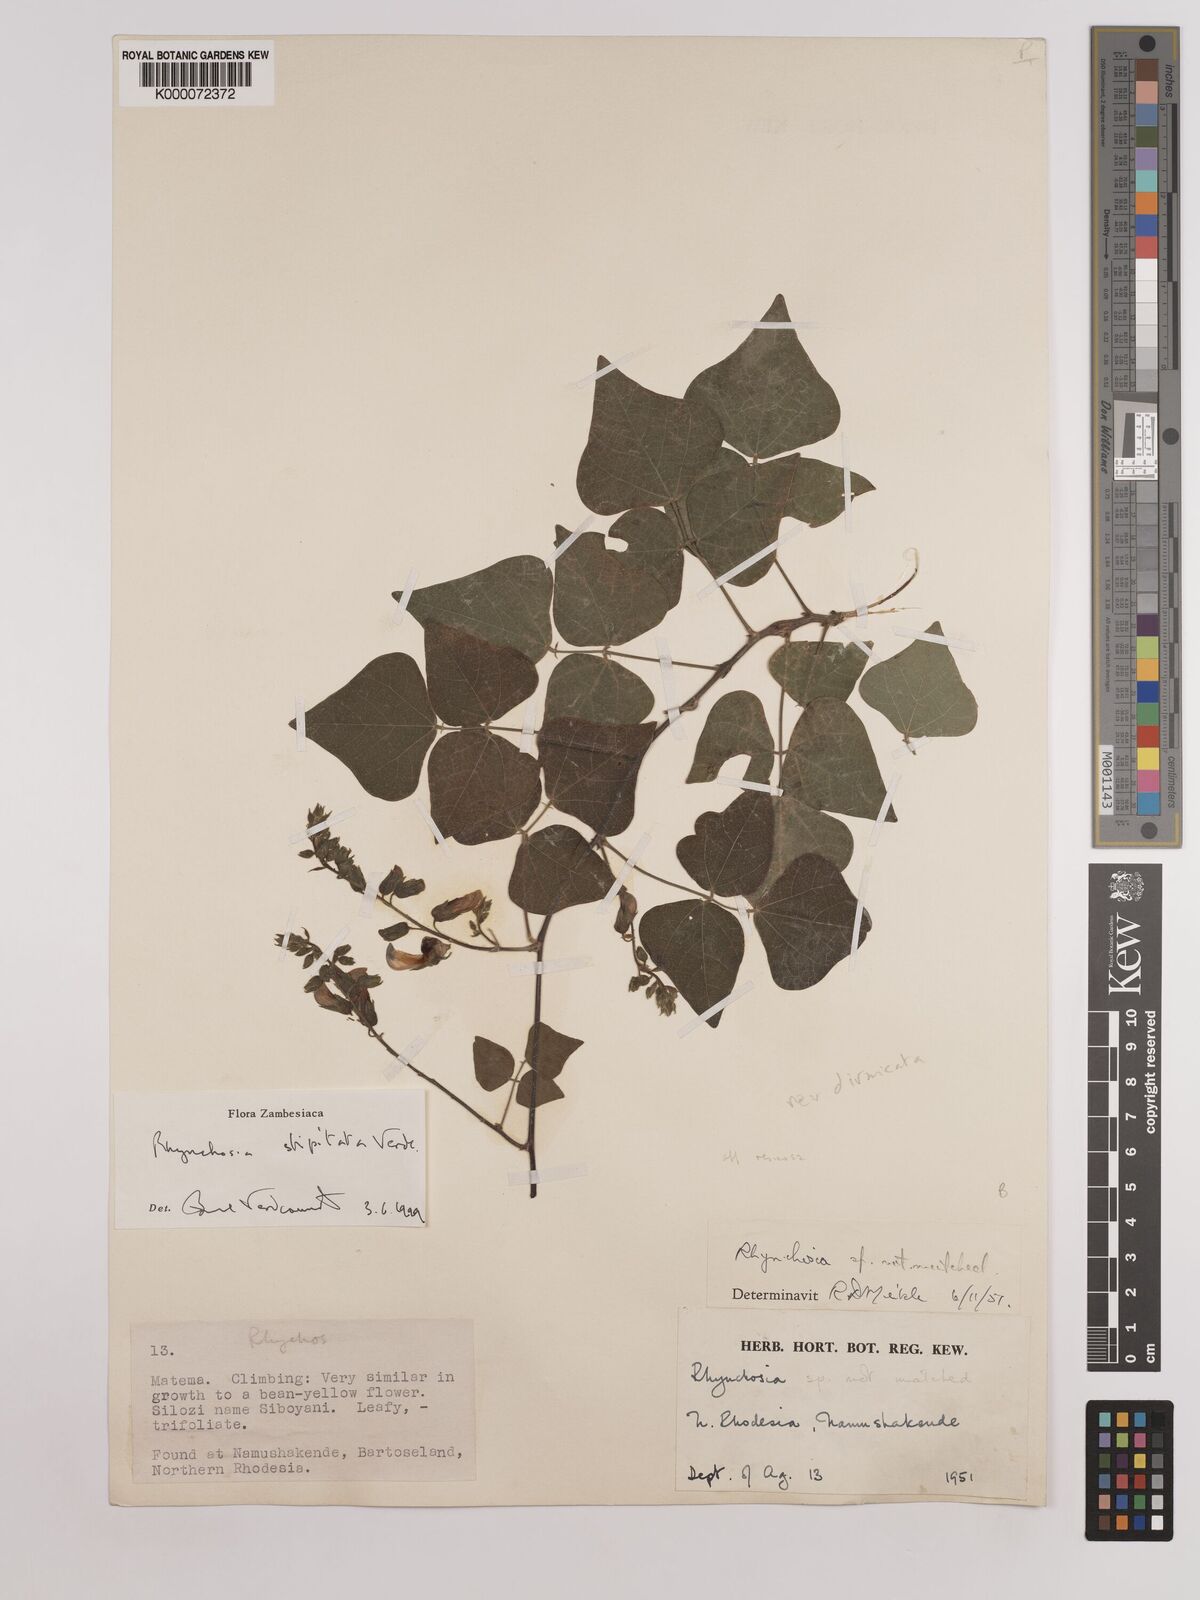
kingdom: Plantae
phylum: Tracheophyta
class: Magnoliopsida
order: Fabales
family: Fabaceae
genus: Rhynchosia
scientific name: Rhynchosia stipitata
